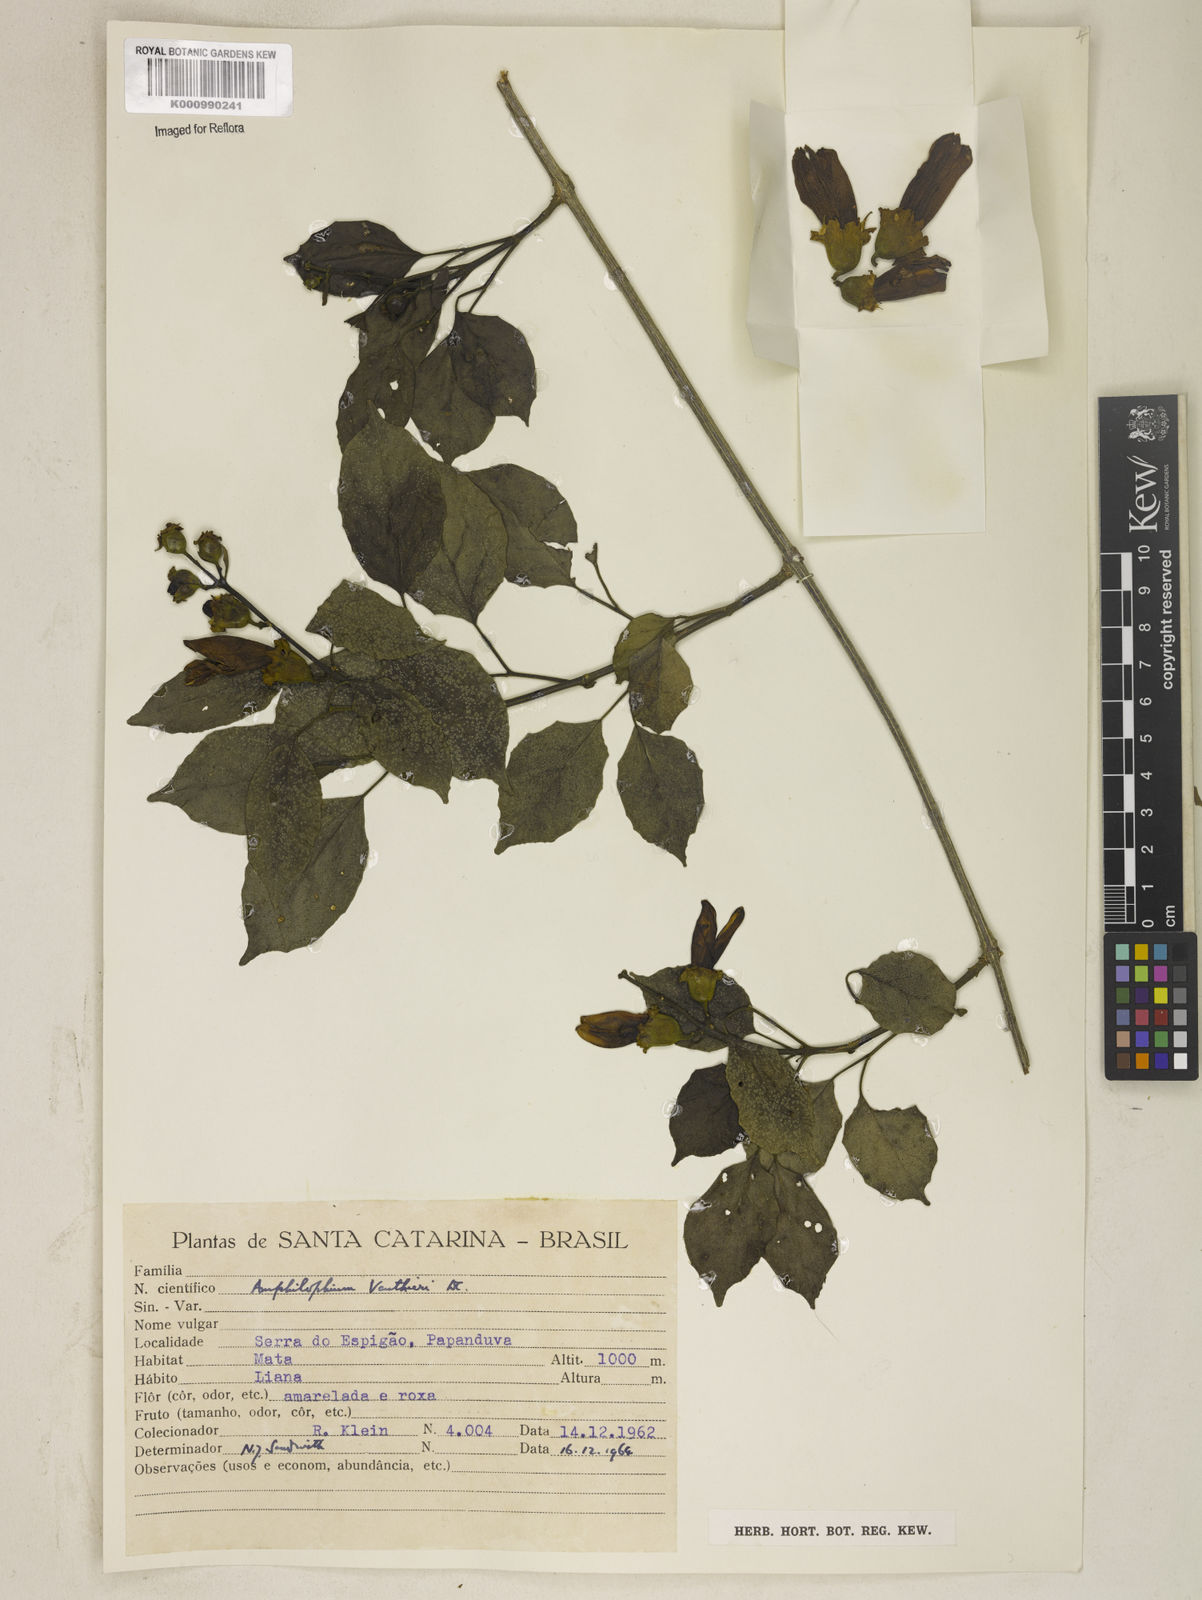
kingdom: Plantae
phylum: Tracheophyta
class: Magnoliopsida
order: Lamiales
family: Bignoniaceae
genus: Amphilophium
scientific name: Amphilophium paniculatum
